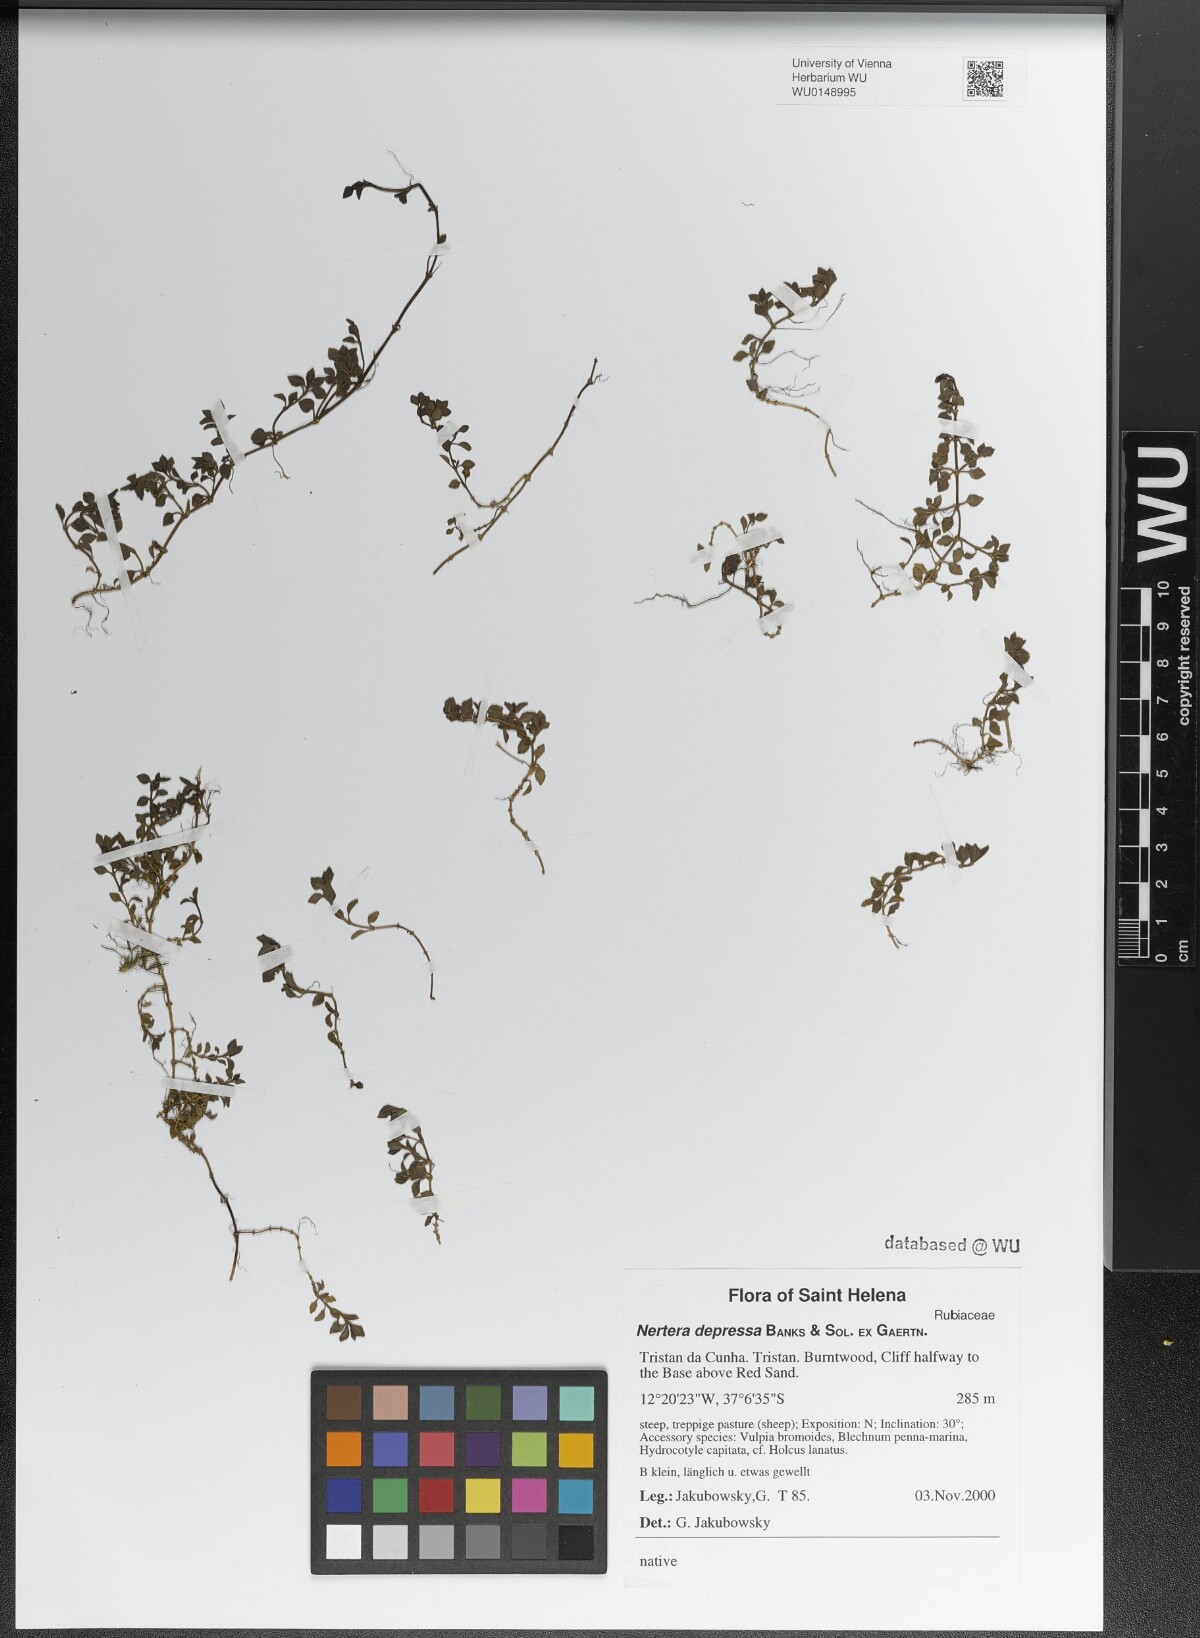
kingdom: Plantae
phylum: Tracheophyta
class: Magnoliopsida
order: Gentianales
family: Rubiaceae
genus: Nertera
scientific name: Nertera granadensis
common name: Beadplant
